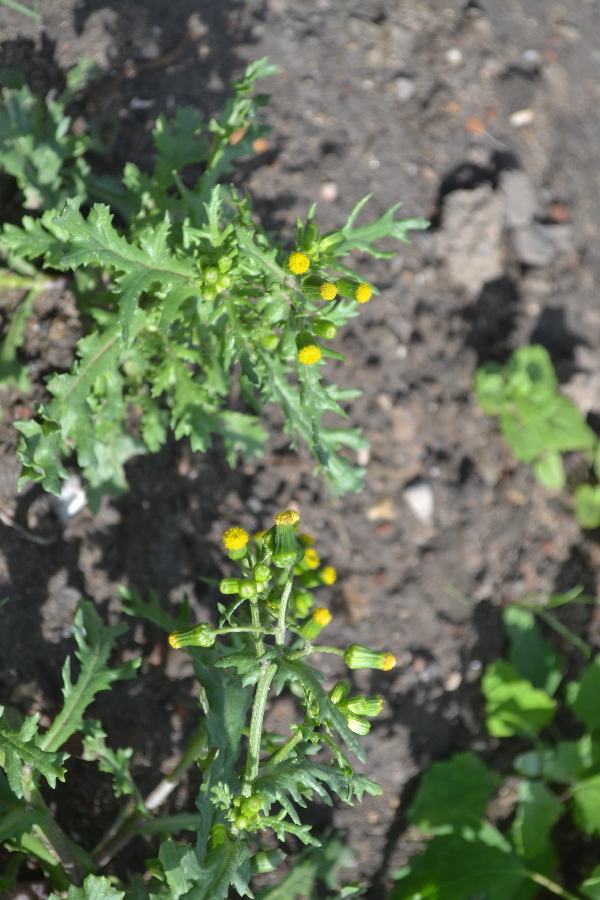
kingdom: Plantae
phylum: Tracheophyta
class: Magnoliopsida
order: Asterales
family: Asteraceae
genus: Senecio
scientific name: Senecio vulgaris
